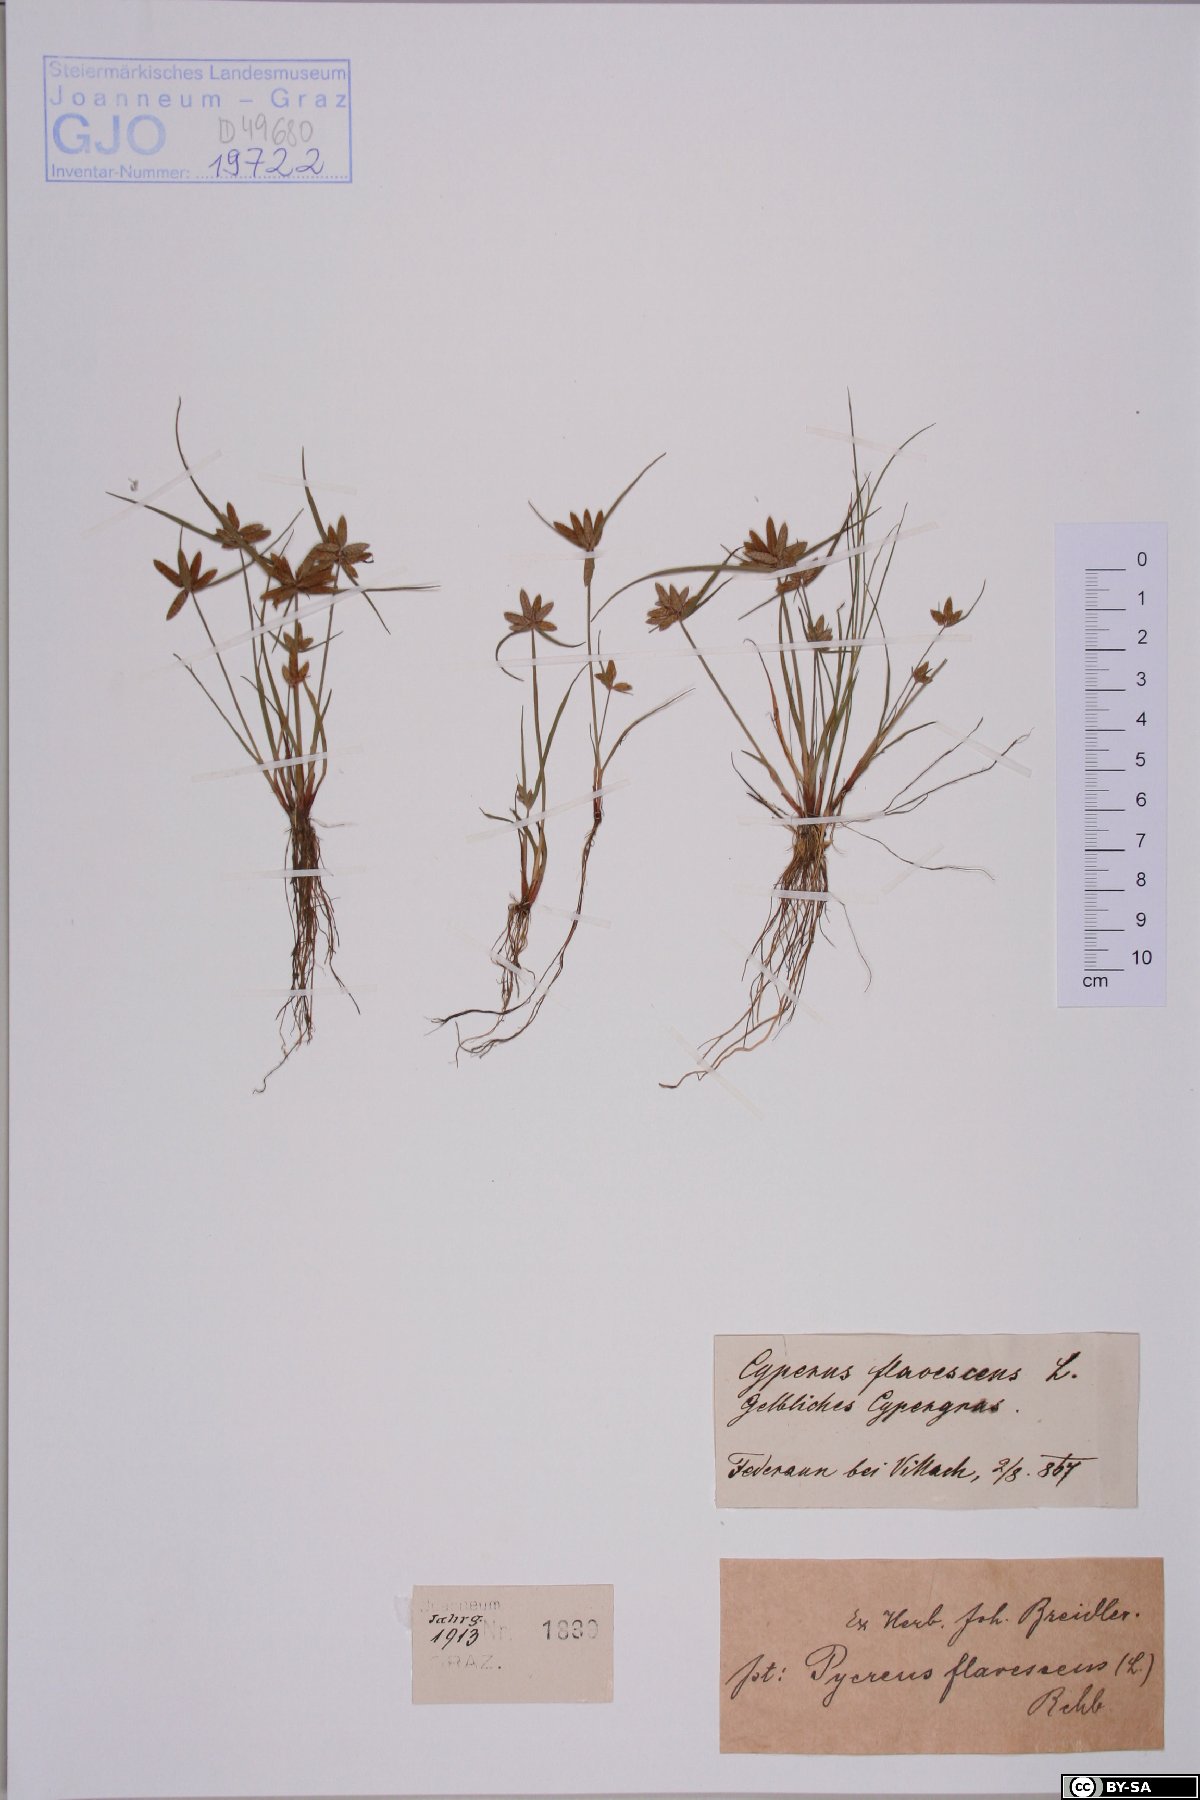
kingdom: Plantae
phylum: Tracheophyta
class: Liliopsida
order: Poales
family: Cyperaceae
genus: Cyperus
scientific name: Cyperus flavescens
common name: Yellow galingale
